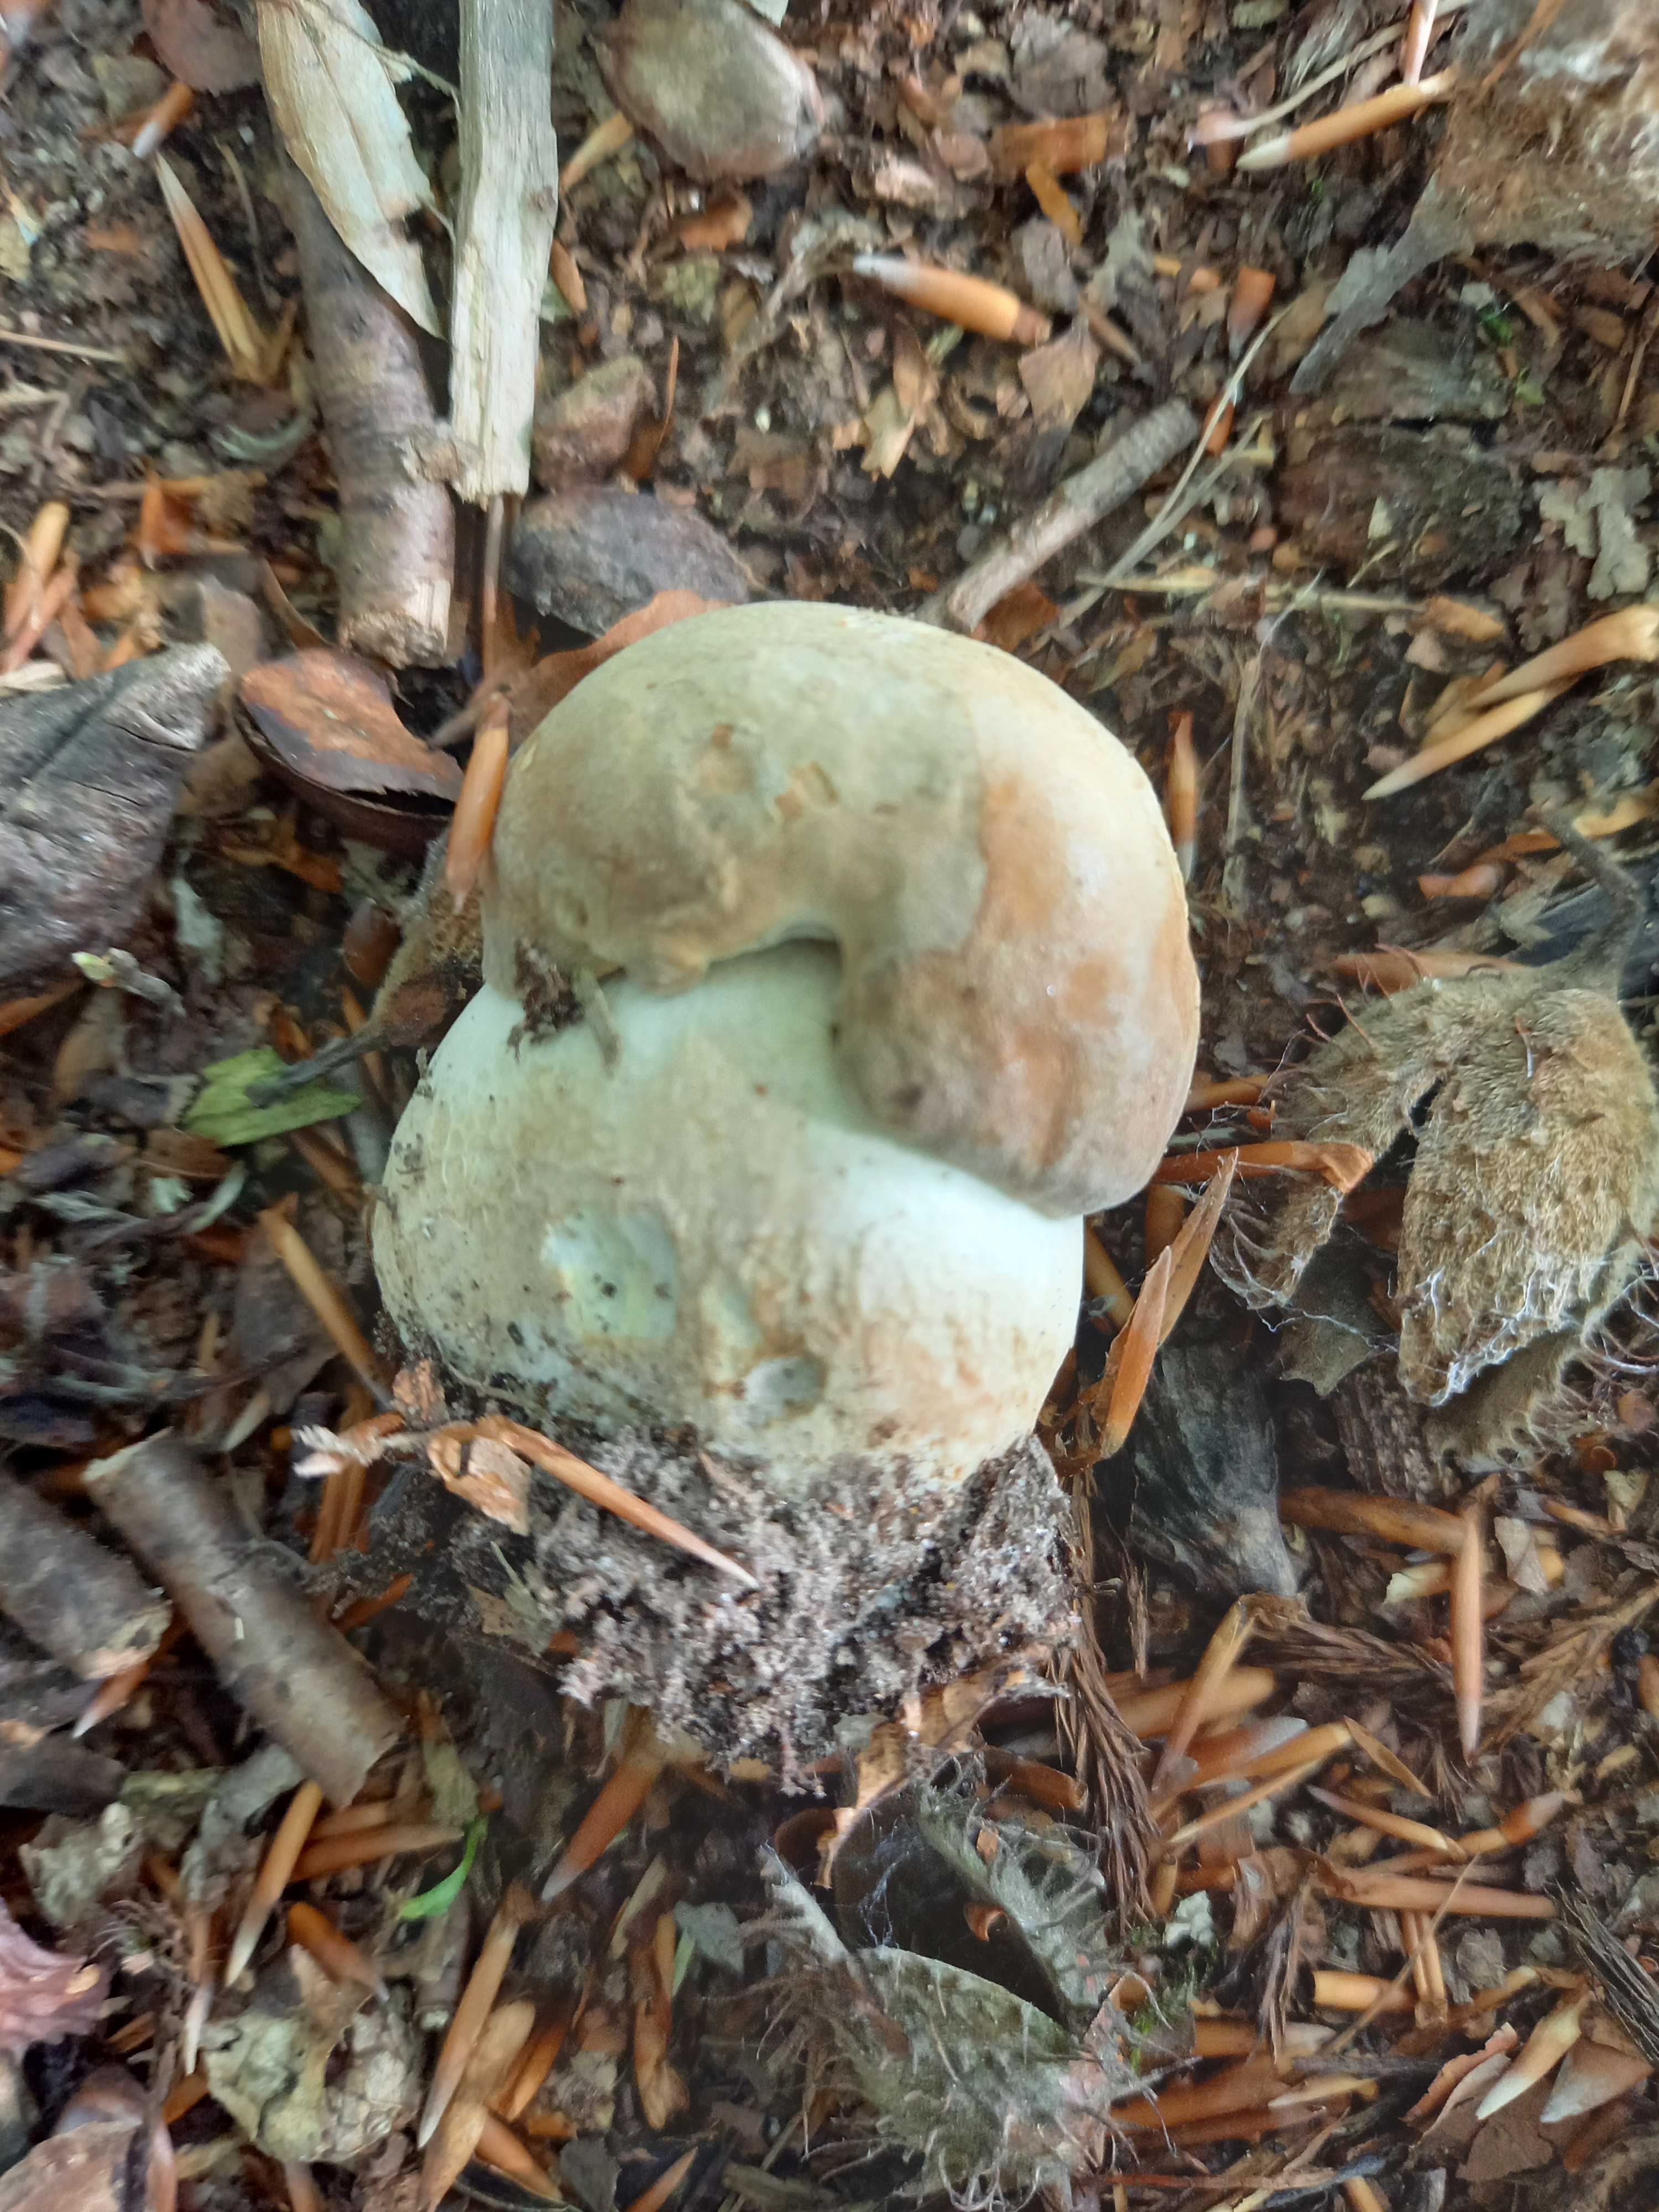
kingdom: Fungi
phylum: Basidiomycota
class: Agaricomycetes
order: Boletales
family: Boletaceae
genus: Boletus
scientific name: Boletus reticulatus
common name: sommer-rørhat
